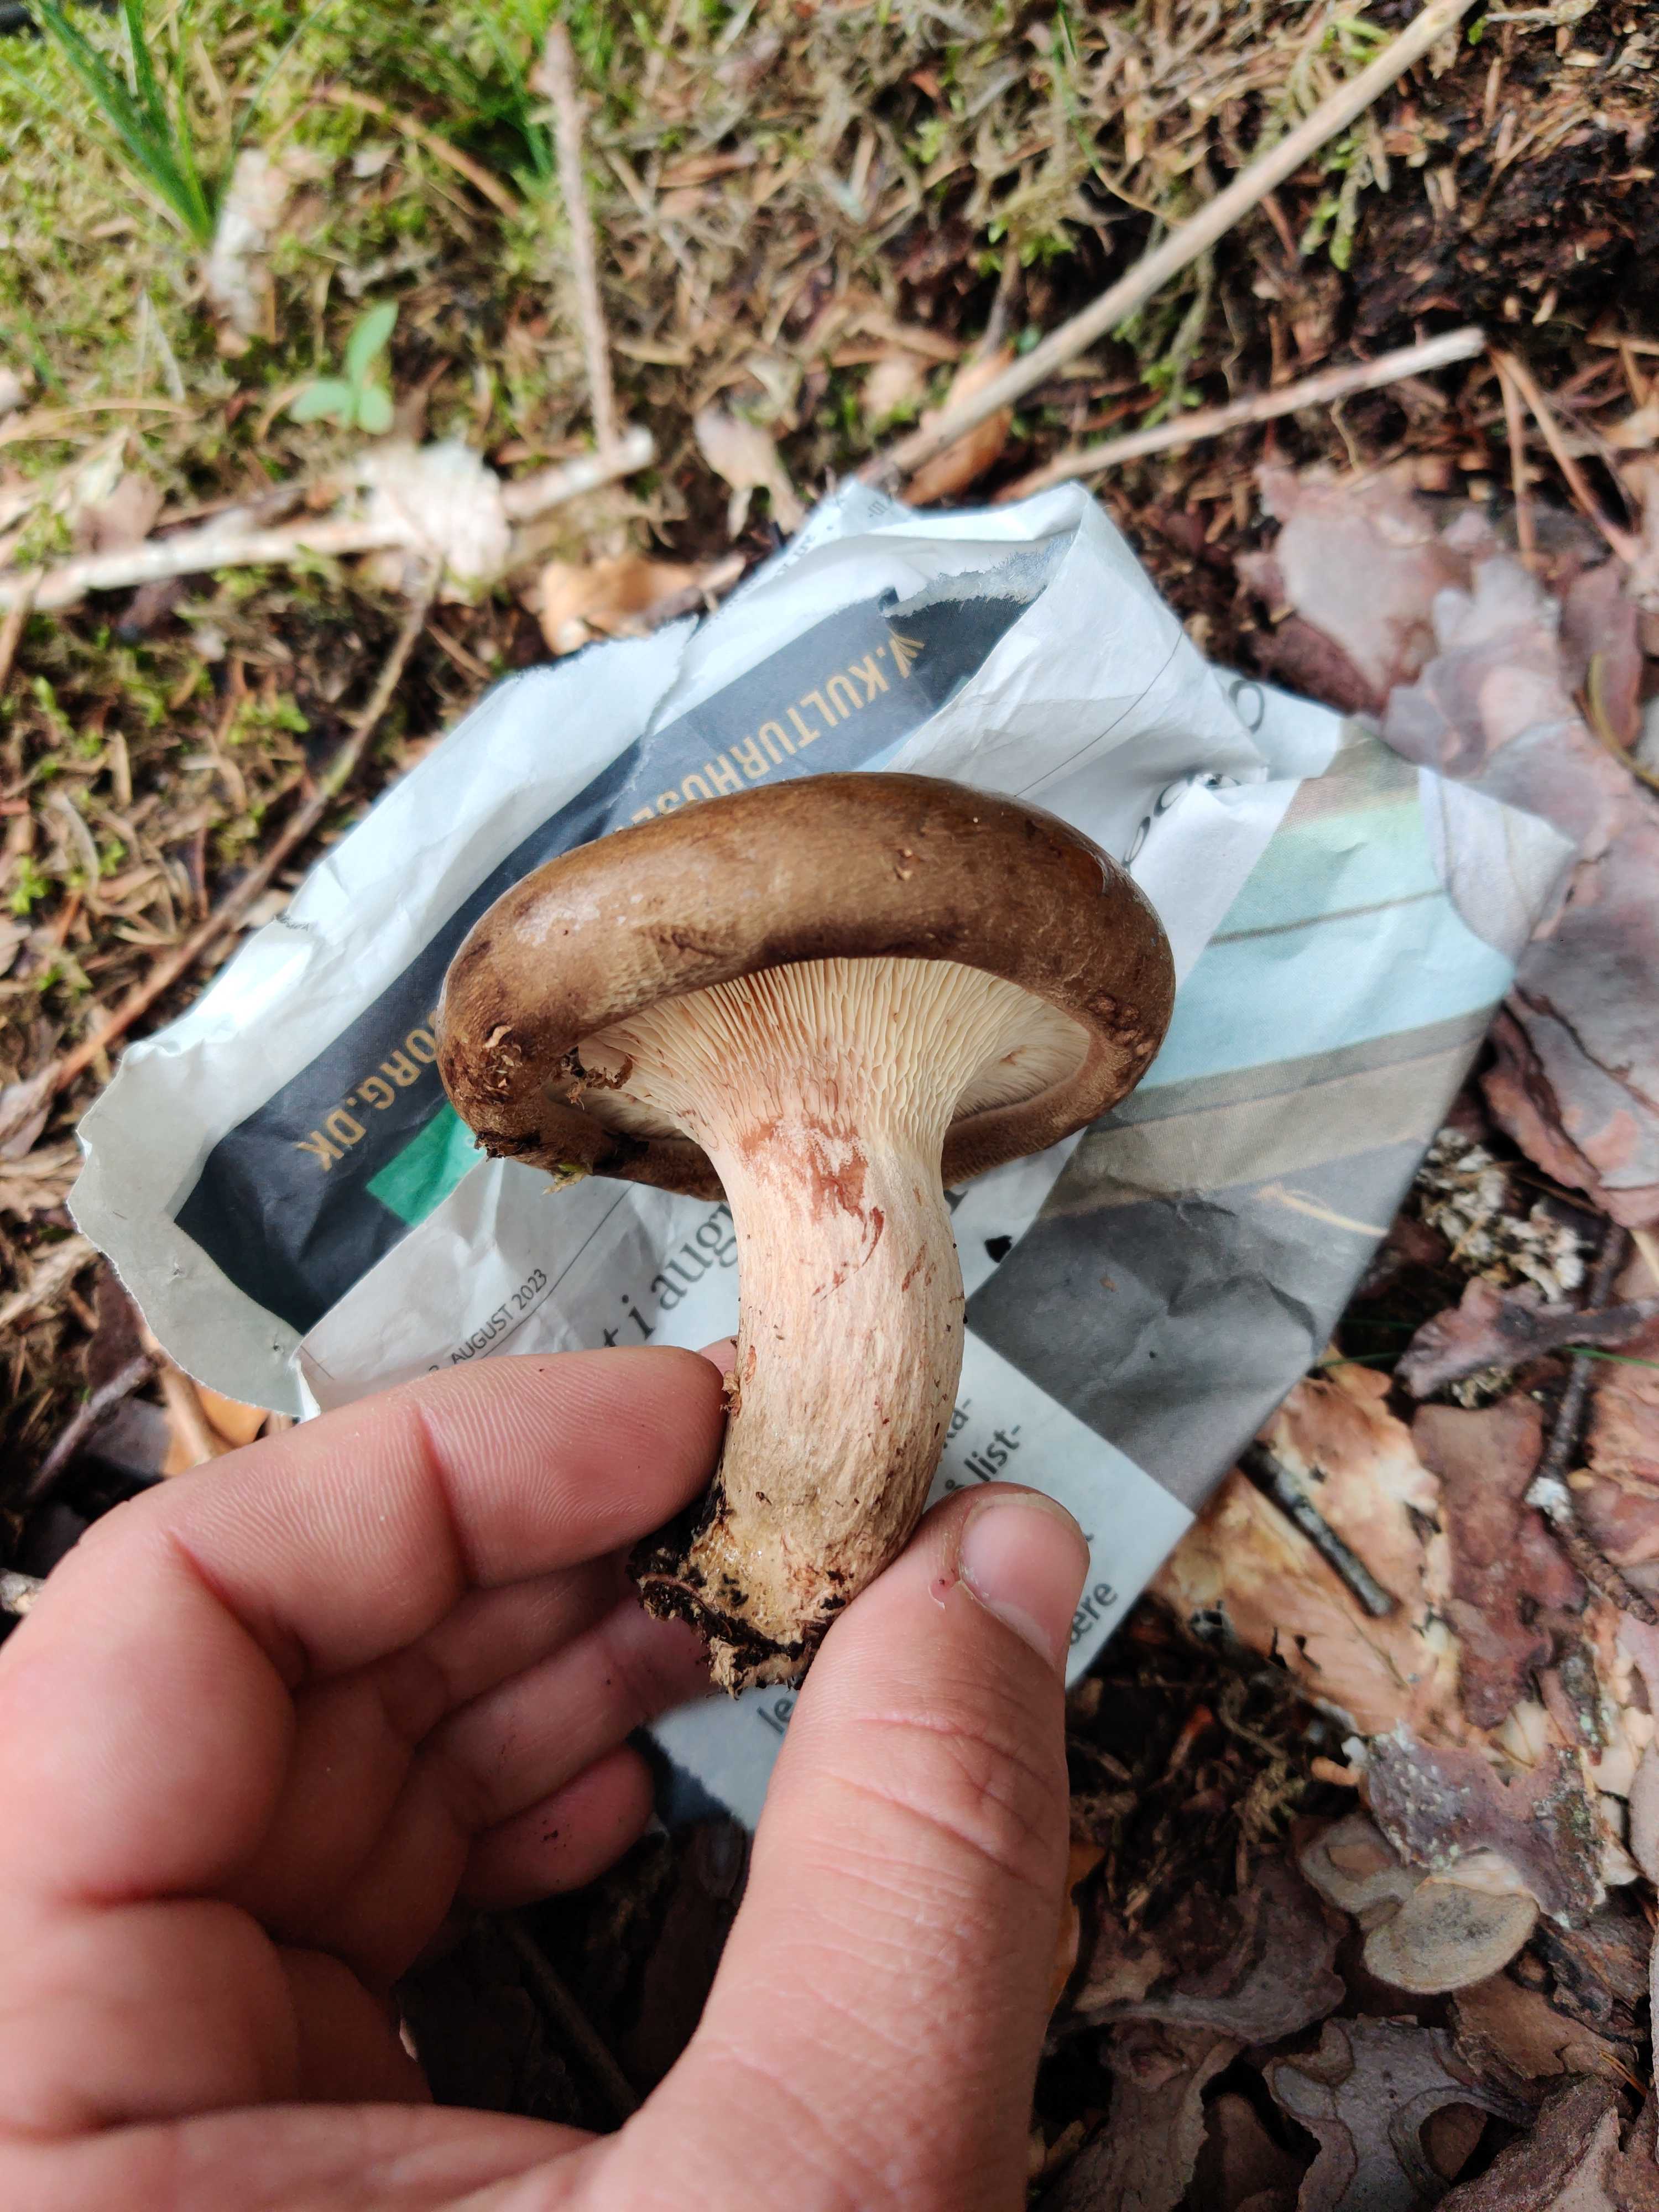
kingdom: Fungi
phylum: Basidiomycota
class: Agaricomycetes
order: Boletales
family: Paxillaceae
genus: Paxillus
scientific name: Paxillus involutus
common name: almindelig netbladhat
